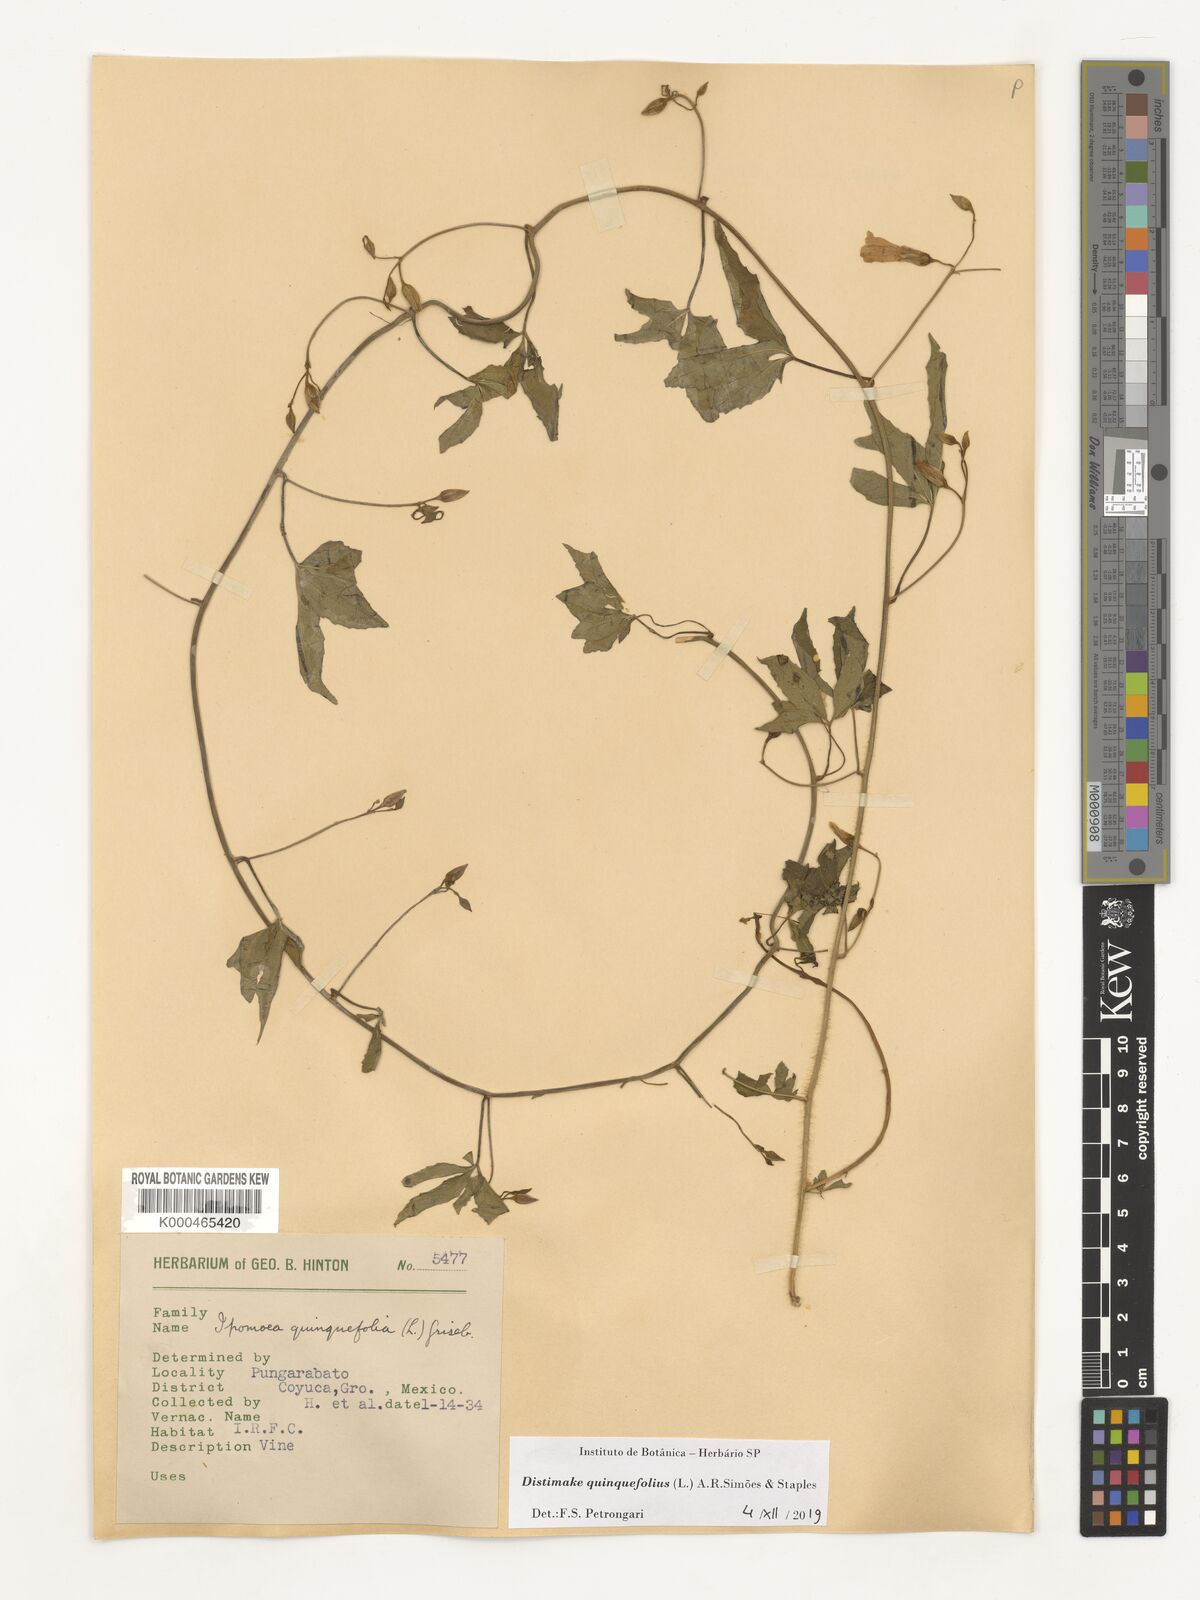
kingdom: Plantae
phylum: Tracheophyta
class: Magnoliopsida
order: Solanales
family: Convolvulaceae
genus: Distimake
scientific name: Distimake quinquefolius
